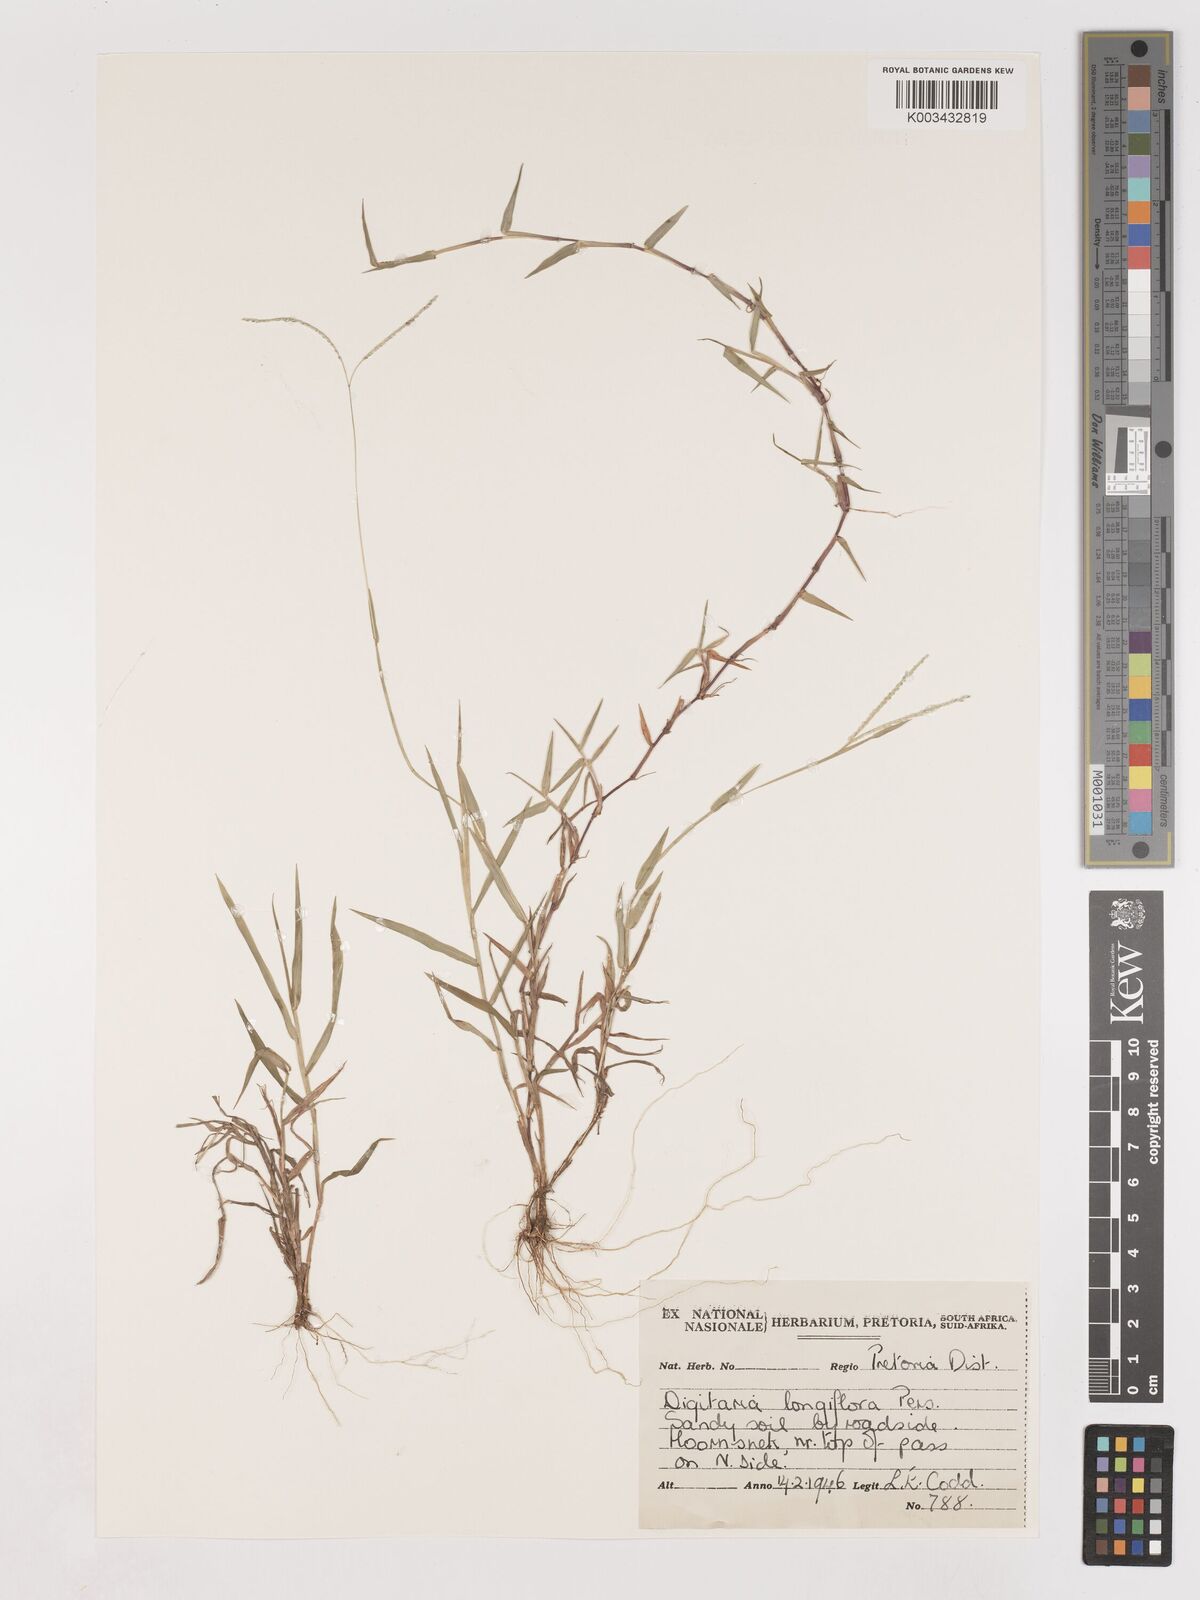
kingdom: Plantae
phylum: Tracheophyta
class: Liliopsida
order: Poales
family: Poaceae
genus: Digitaria
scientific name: Digitaria longiflora
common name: Wire crabgrass
